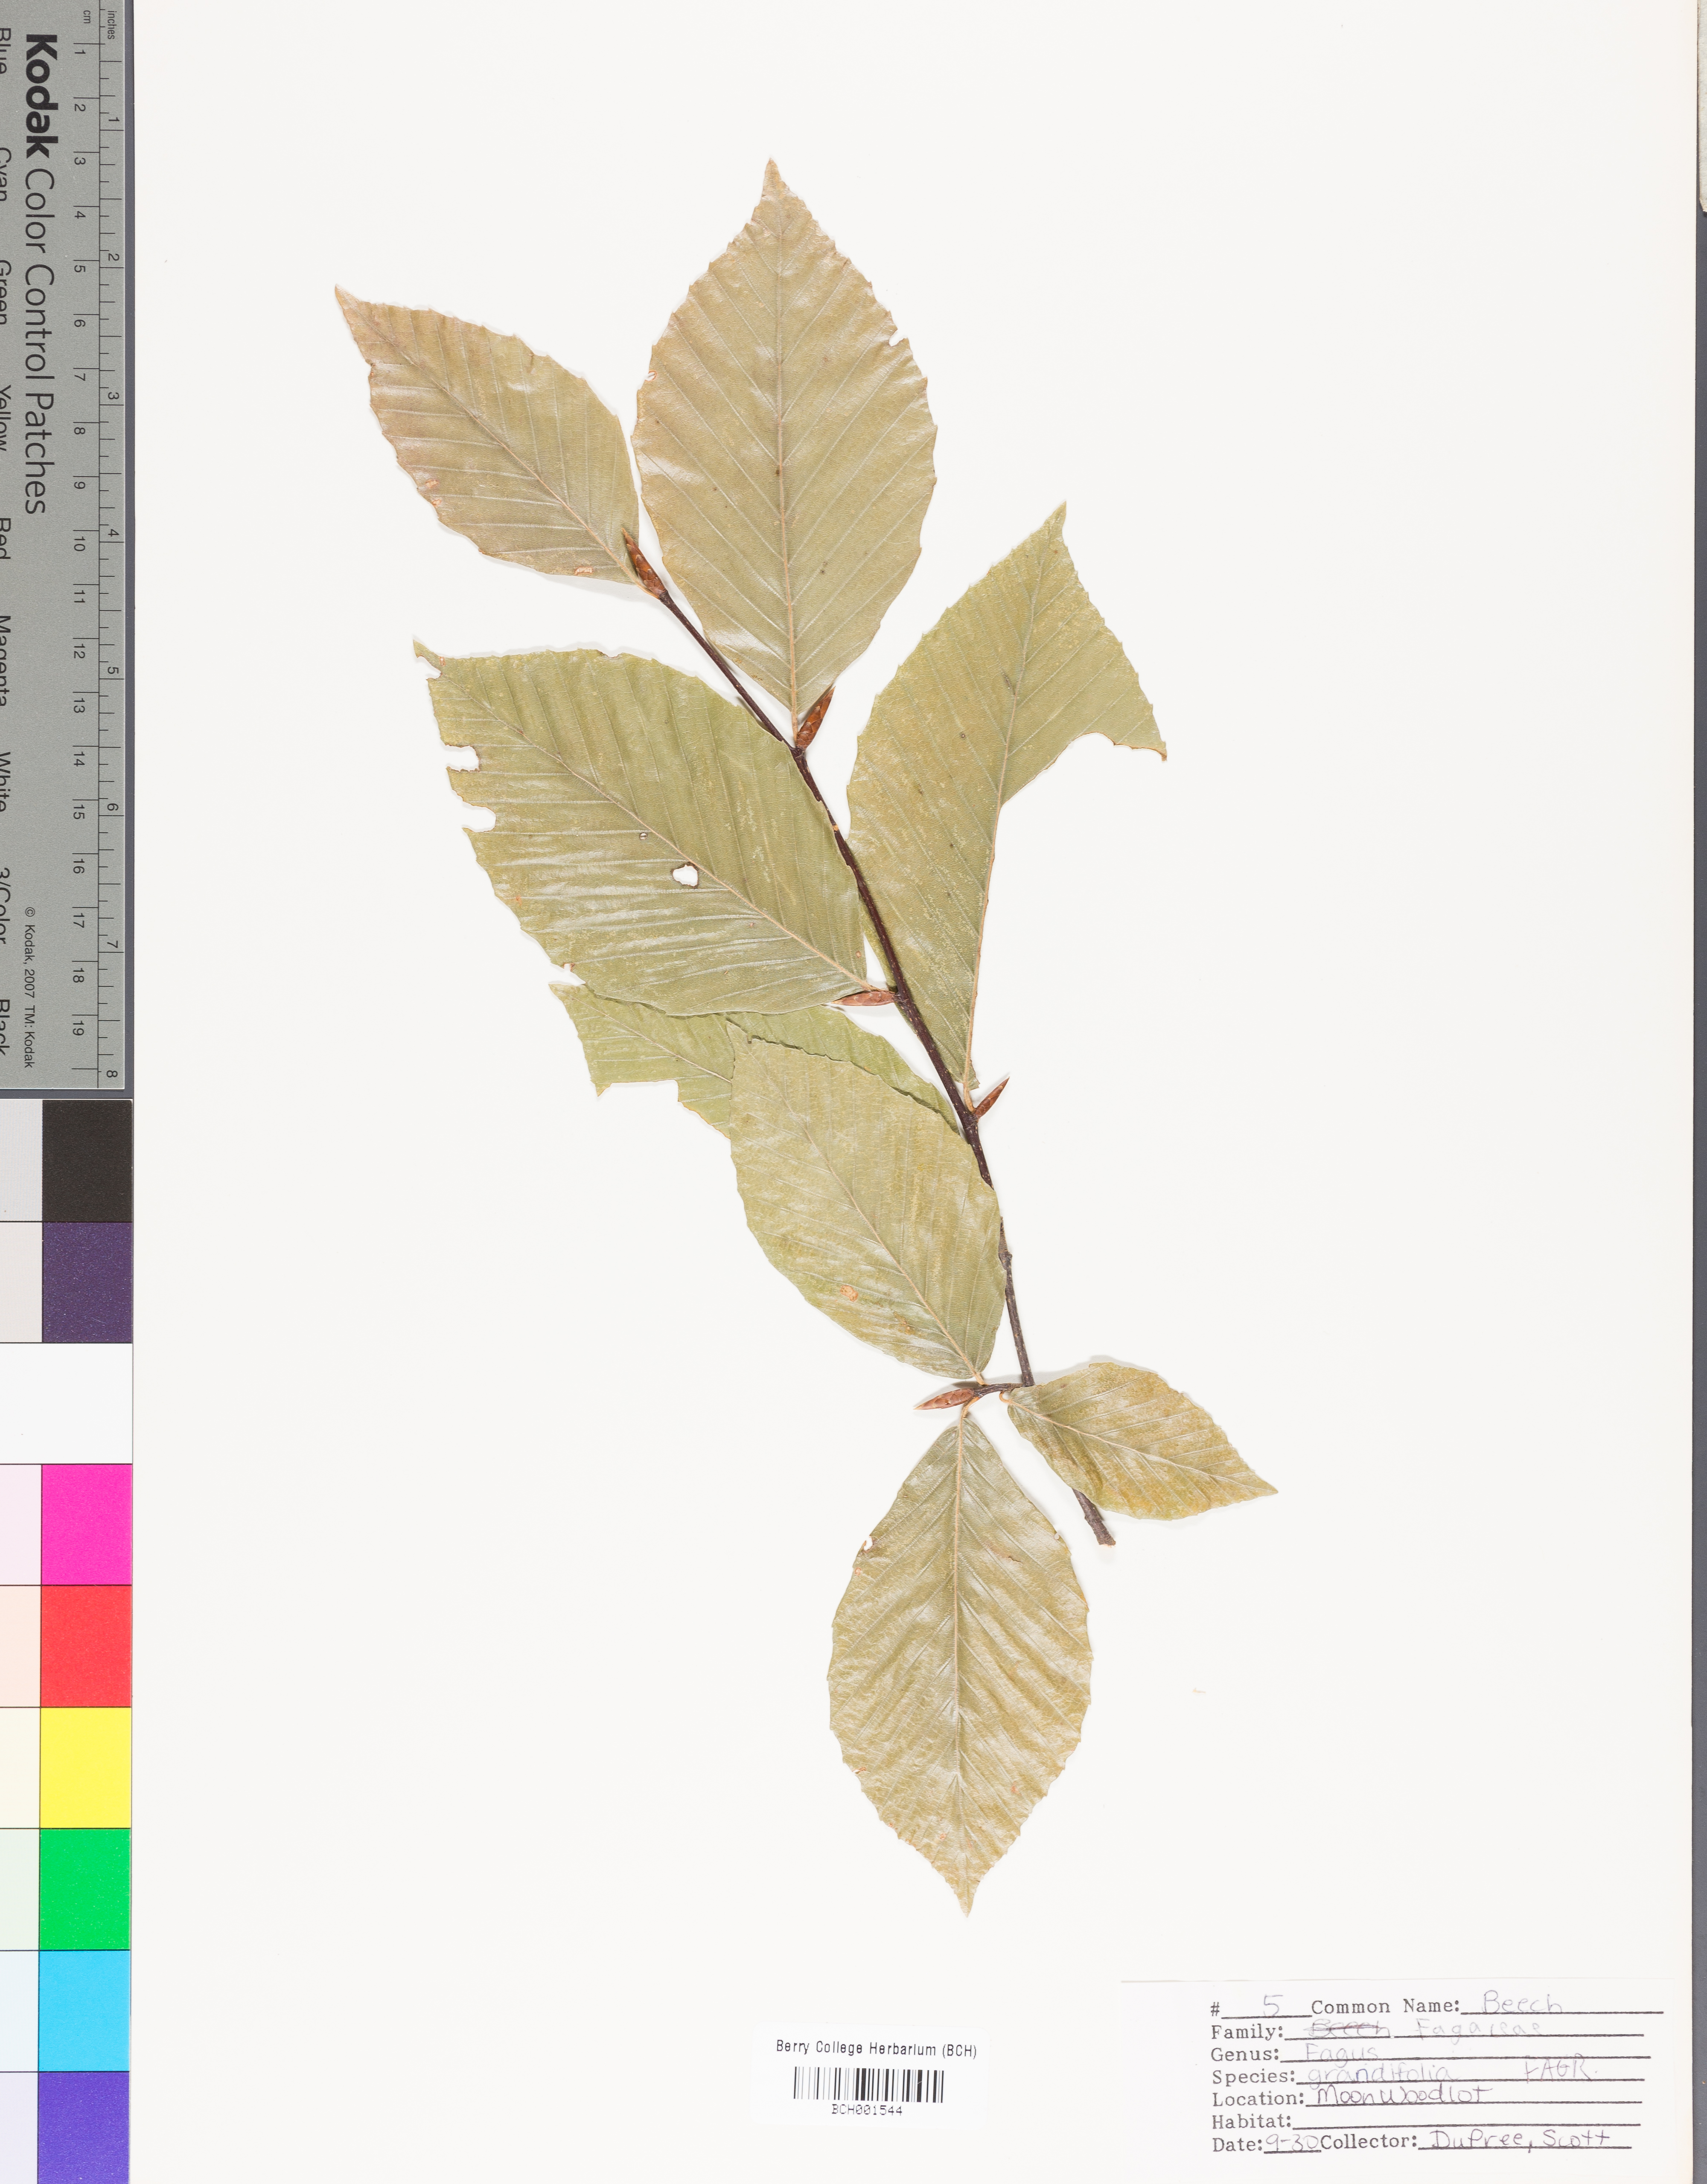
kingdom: Plantae
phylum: Tracheophyta
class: Magnoliopsida
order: Fagales
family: Fagaceae
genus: Fagus
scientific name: Fagus grandifolia
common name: American beech
